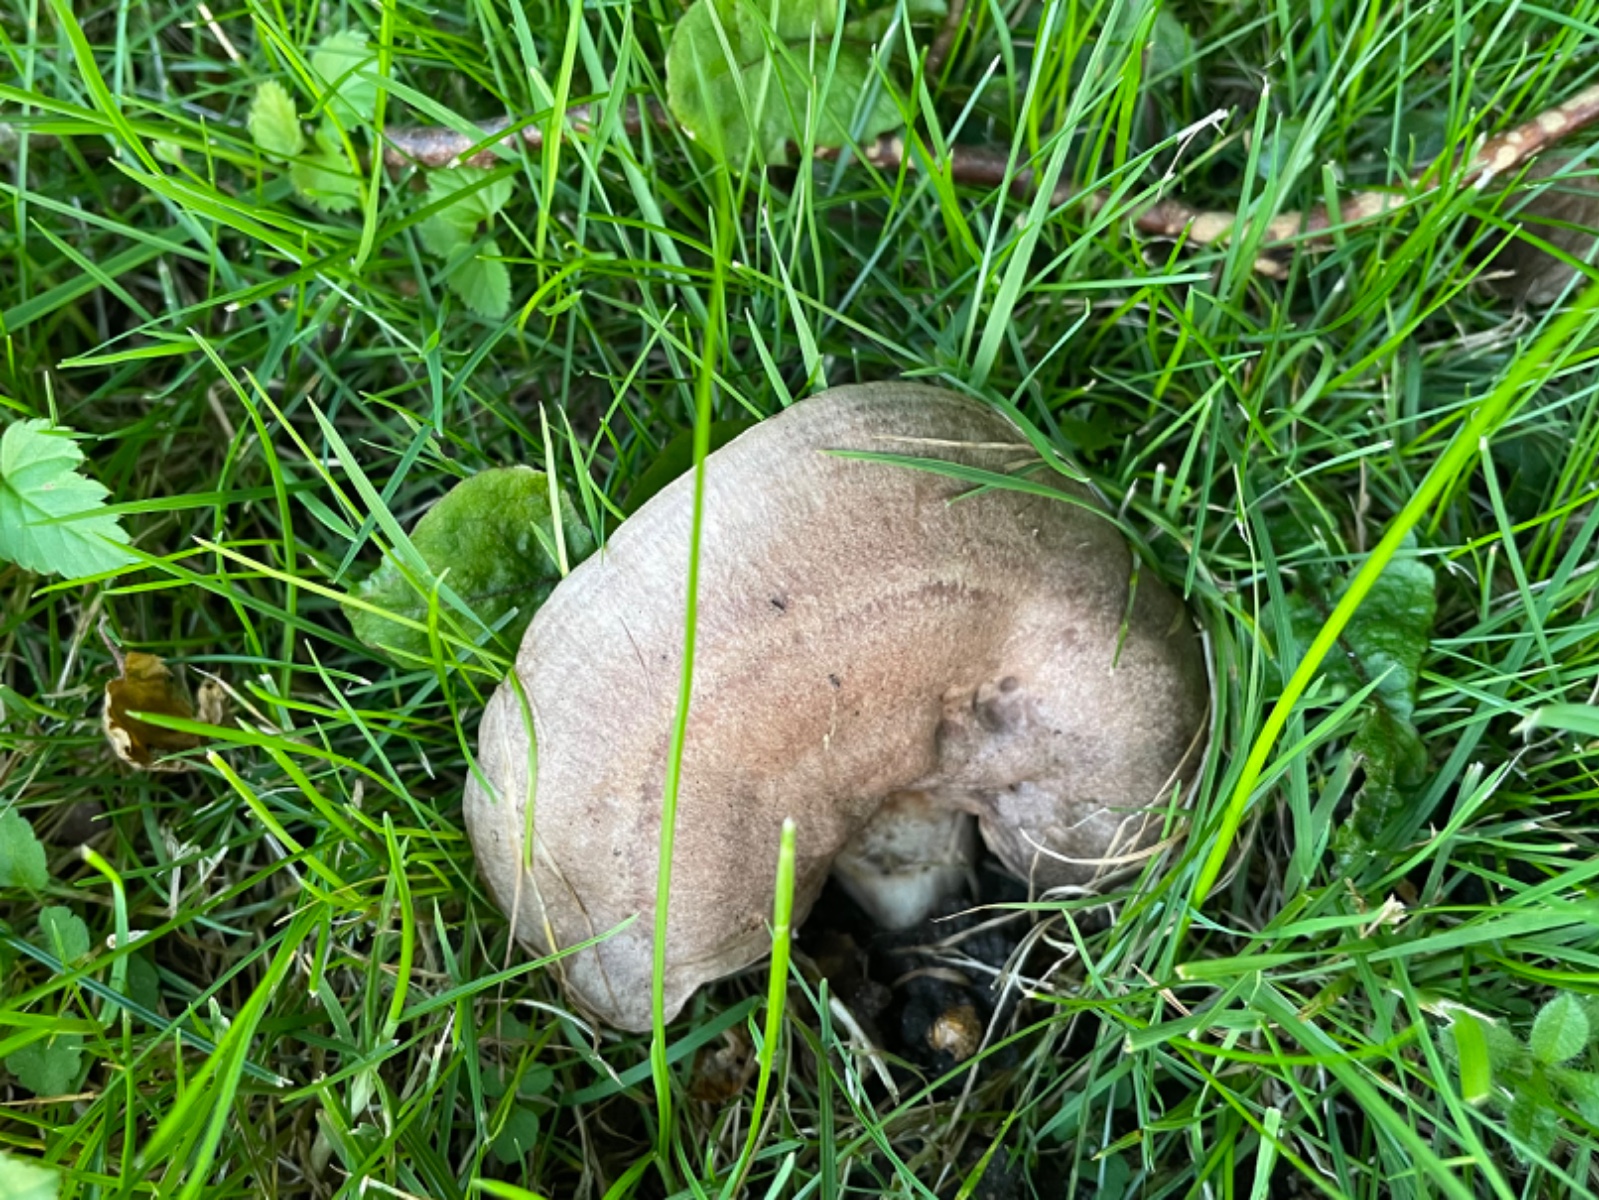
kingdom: Fungi
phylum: Basidiomycota
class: Agaricomycetes
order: Russulales
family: Russulaceae
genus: Lactarius
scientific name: Lactarius circellatus
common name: avnbøg-mælkehat
